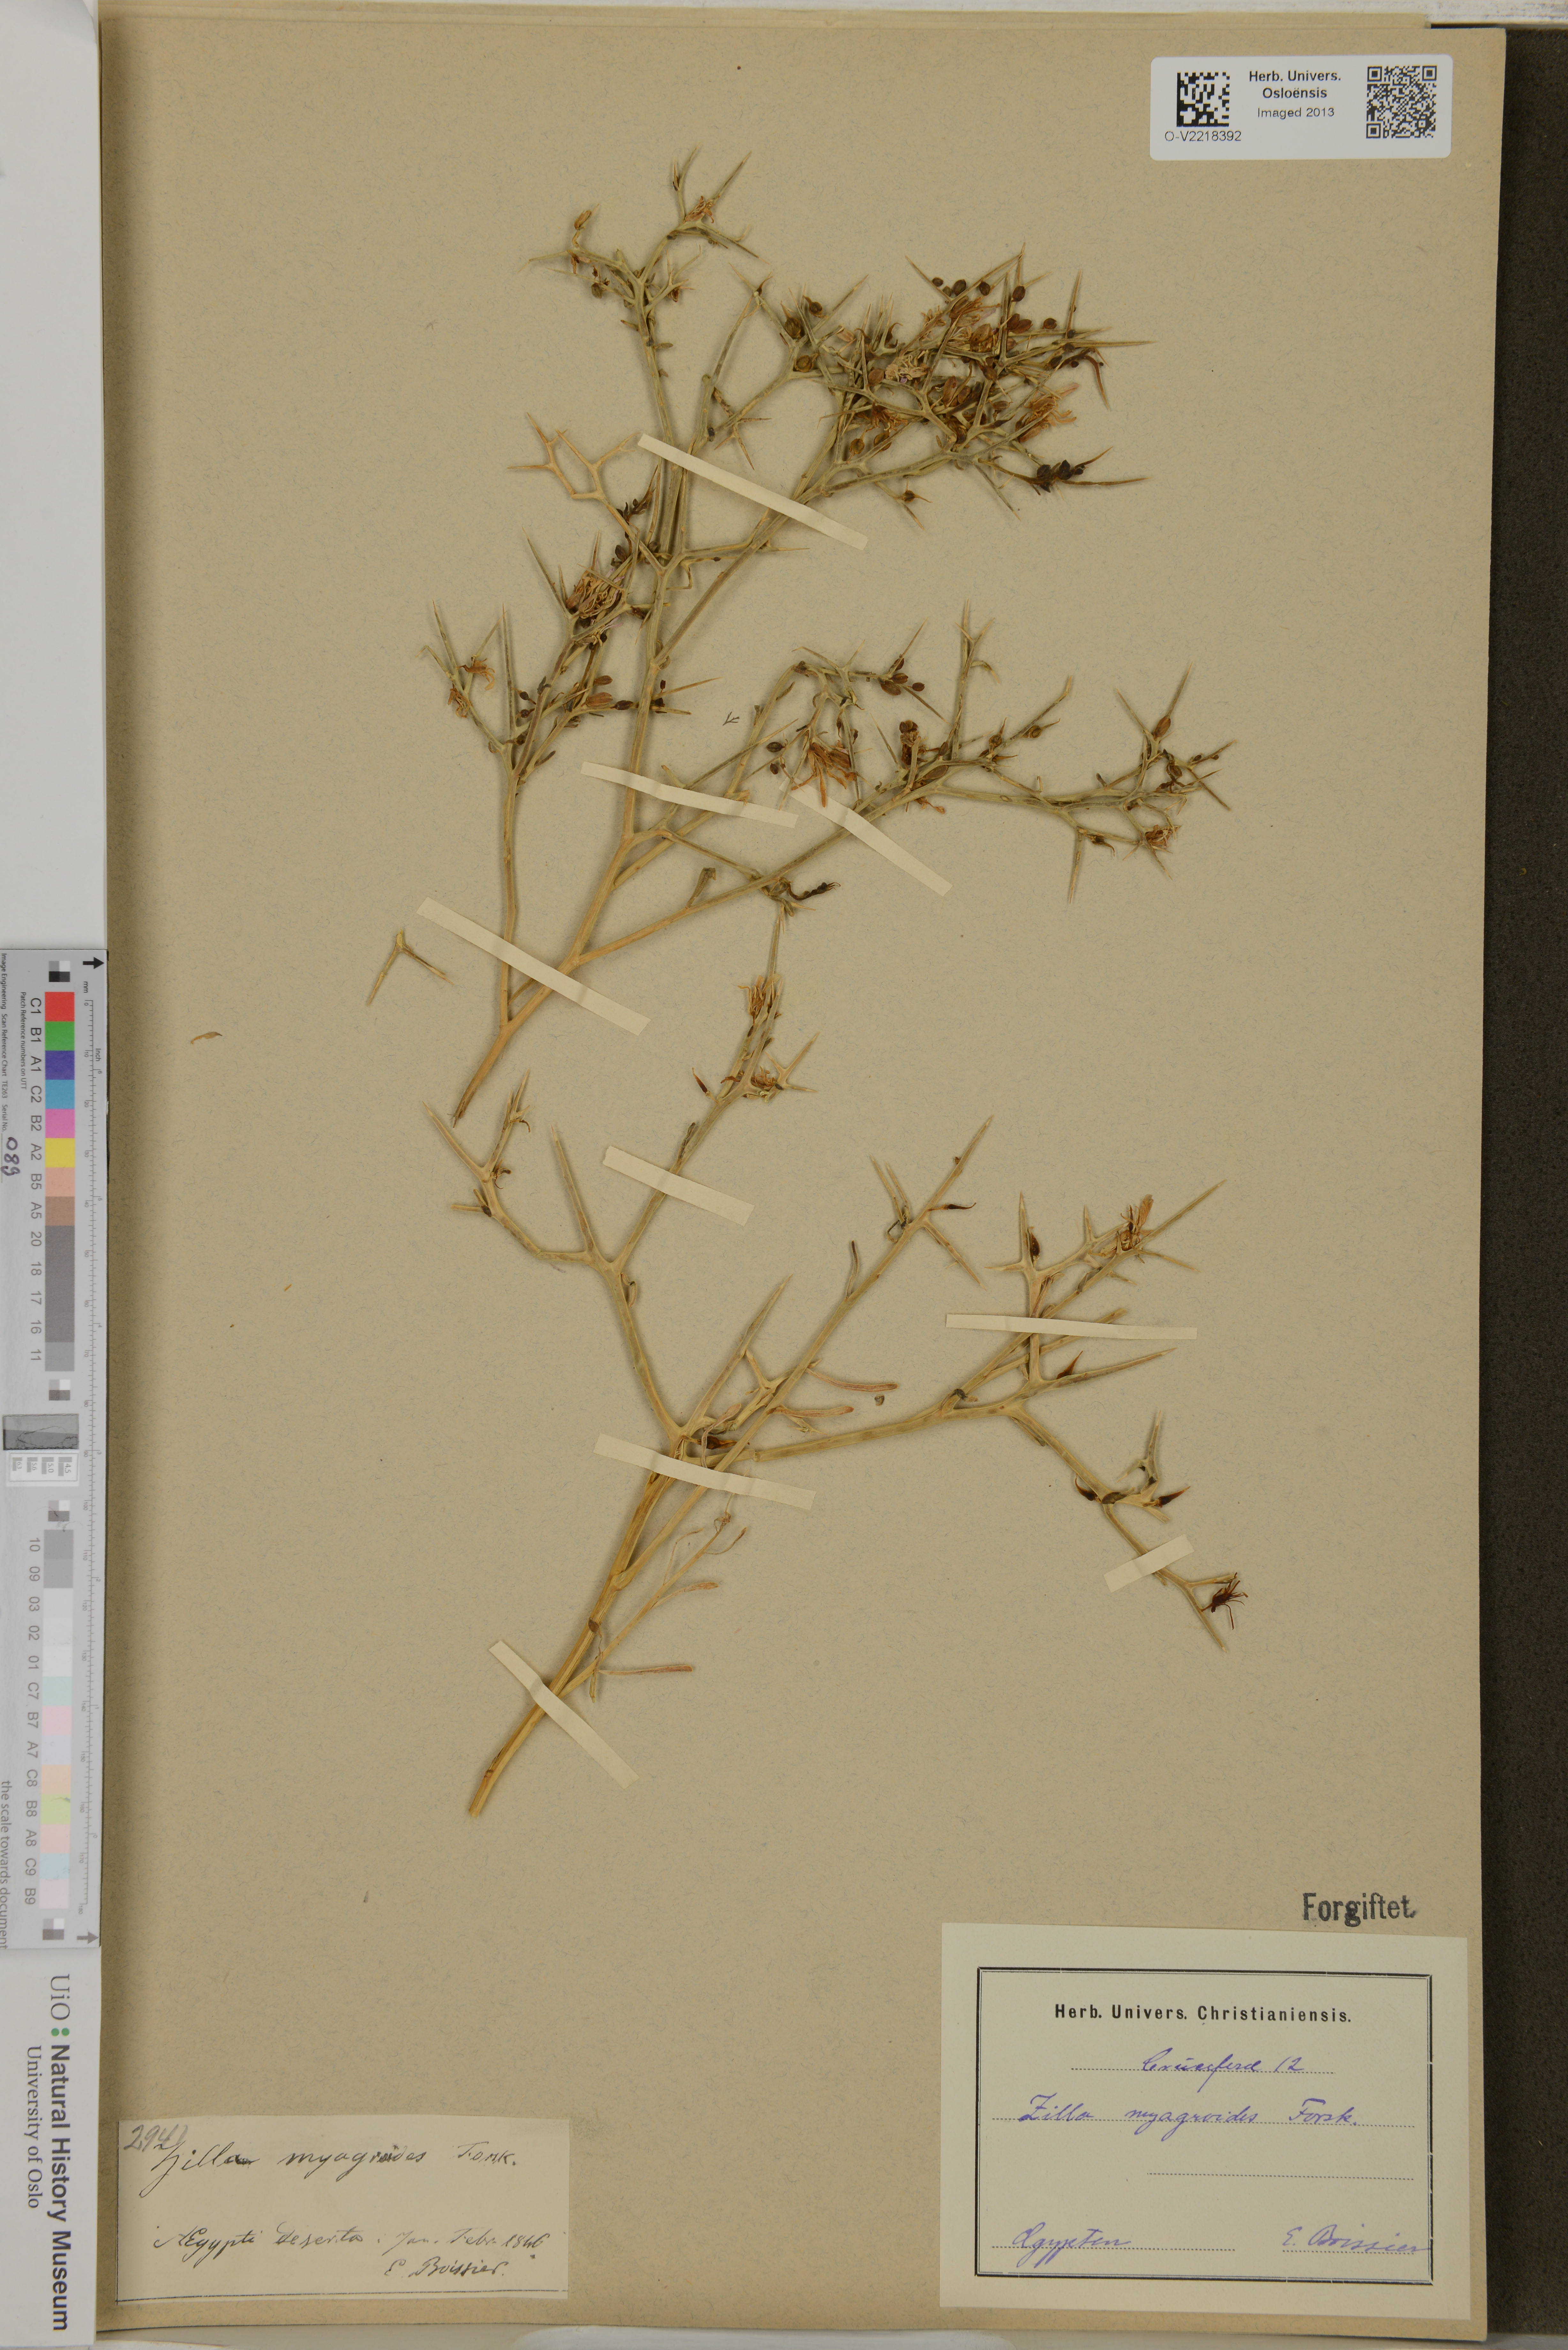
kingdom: Plantae
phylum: Tracheophyta
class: Magnoliopsida
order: Brassicales
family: Brassicaceae
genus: Zilla
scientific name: Zilla spinosa
